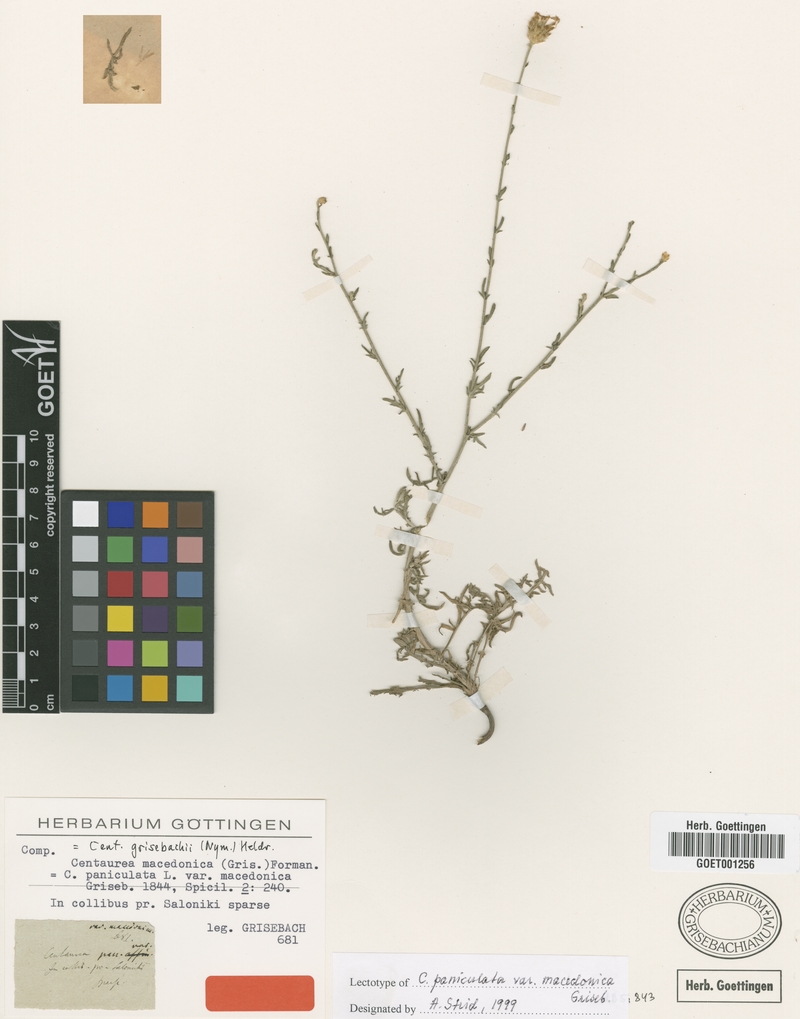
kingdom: Plantae
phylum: Tracheophyta
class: Magnoliopsida
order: Asterales
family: Asteraceae
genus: Centaurea
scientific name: Centaurea grisebachii
